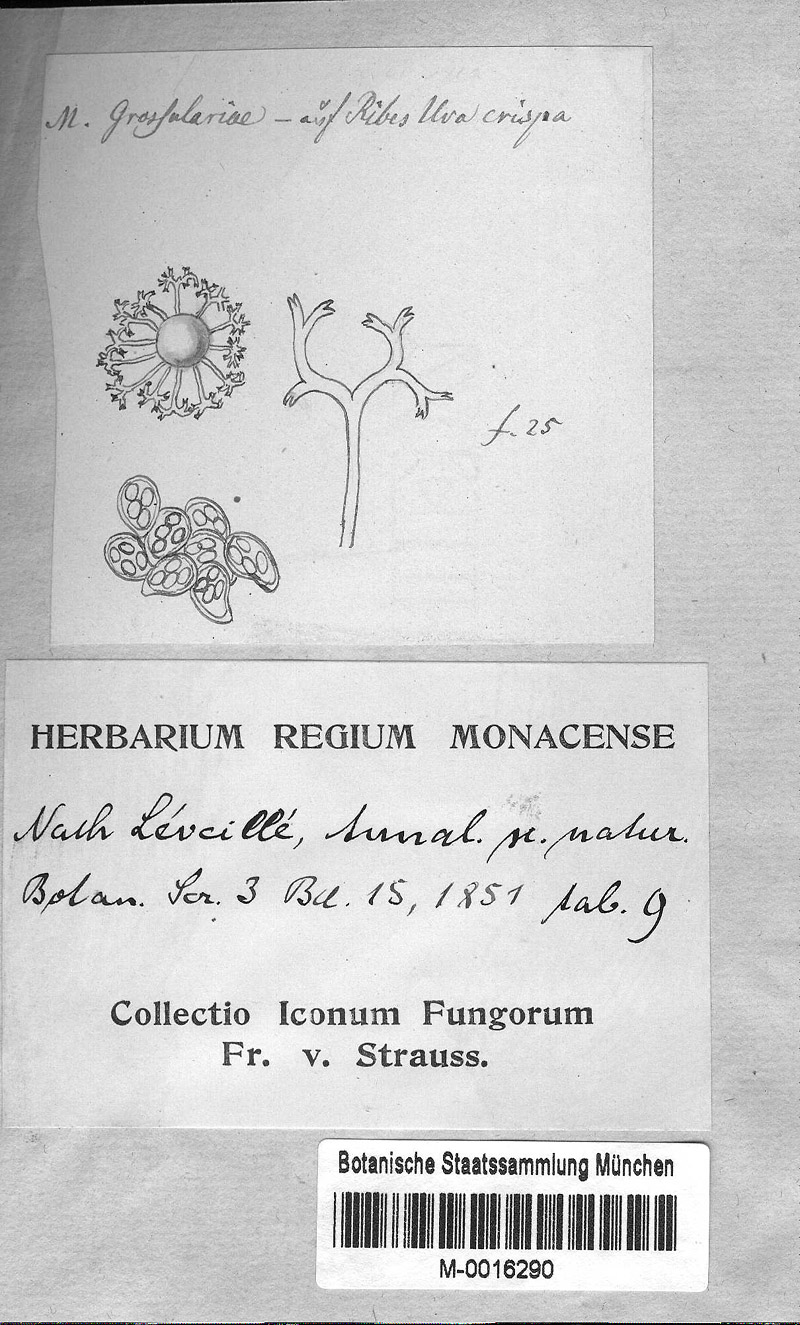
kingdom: Fungi
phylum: Ascomycota
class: Leotiomycetes
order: Helotiales
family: Erysiphaceae
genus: Microsphaera
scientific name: Microsphaera grossulariae
